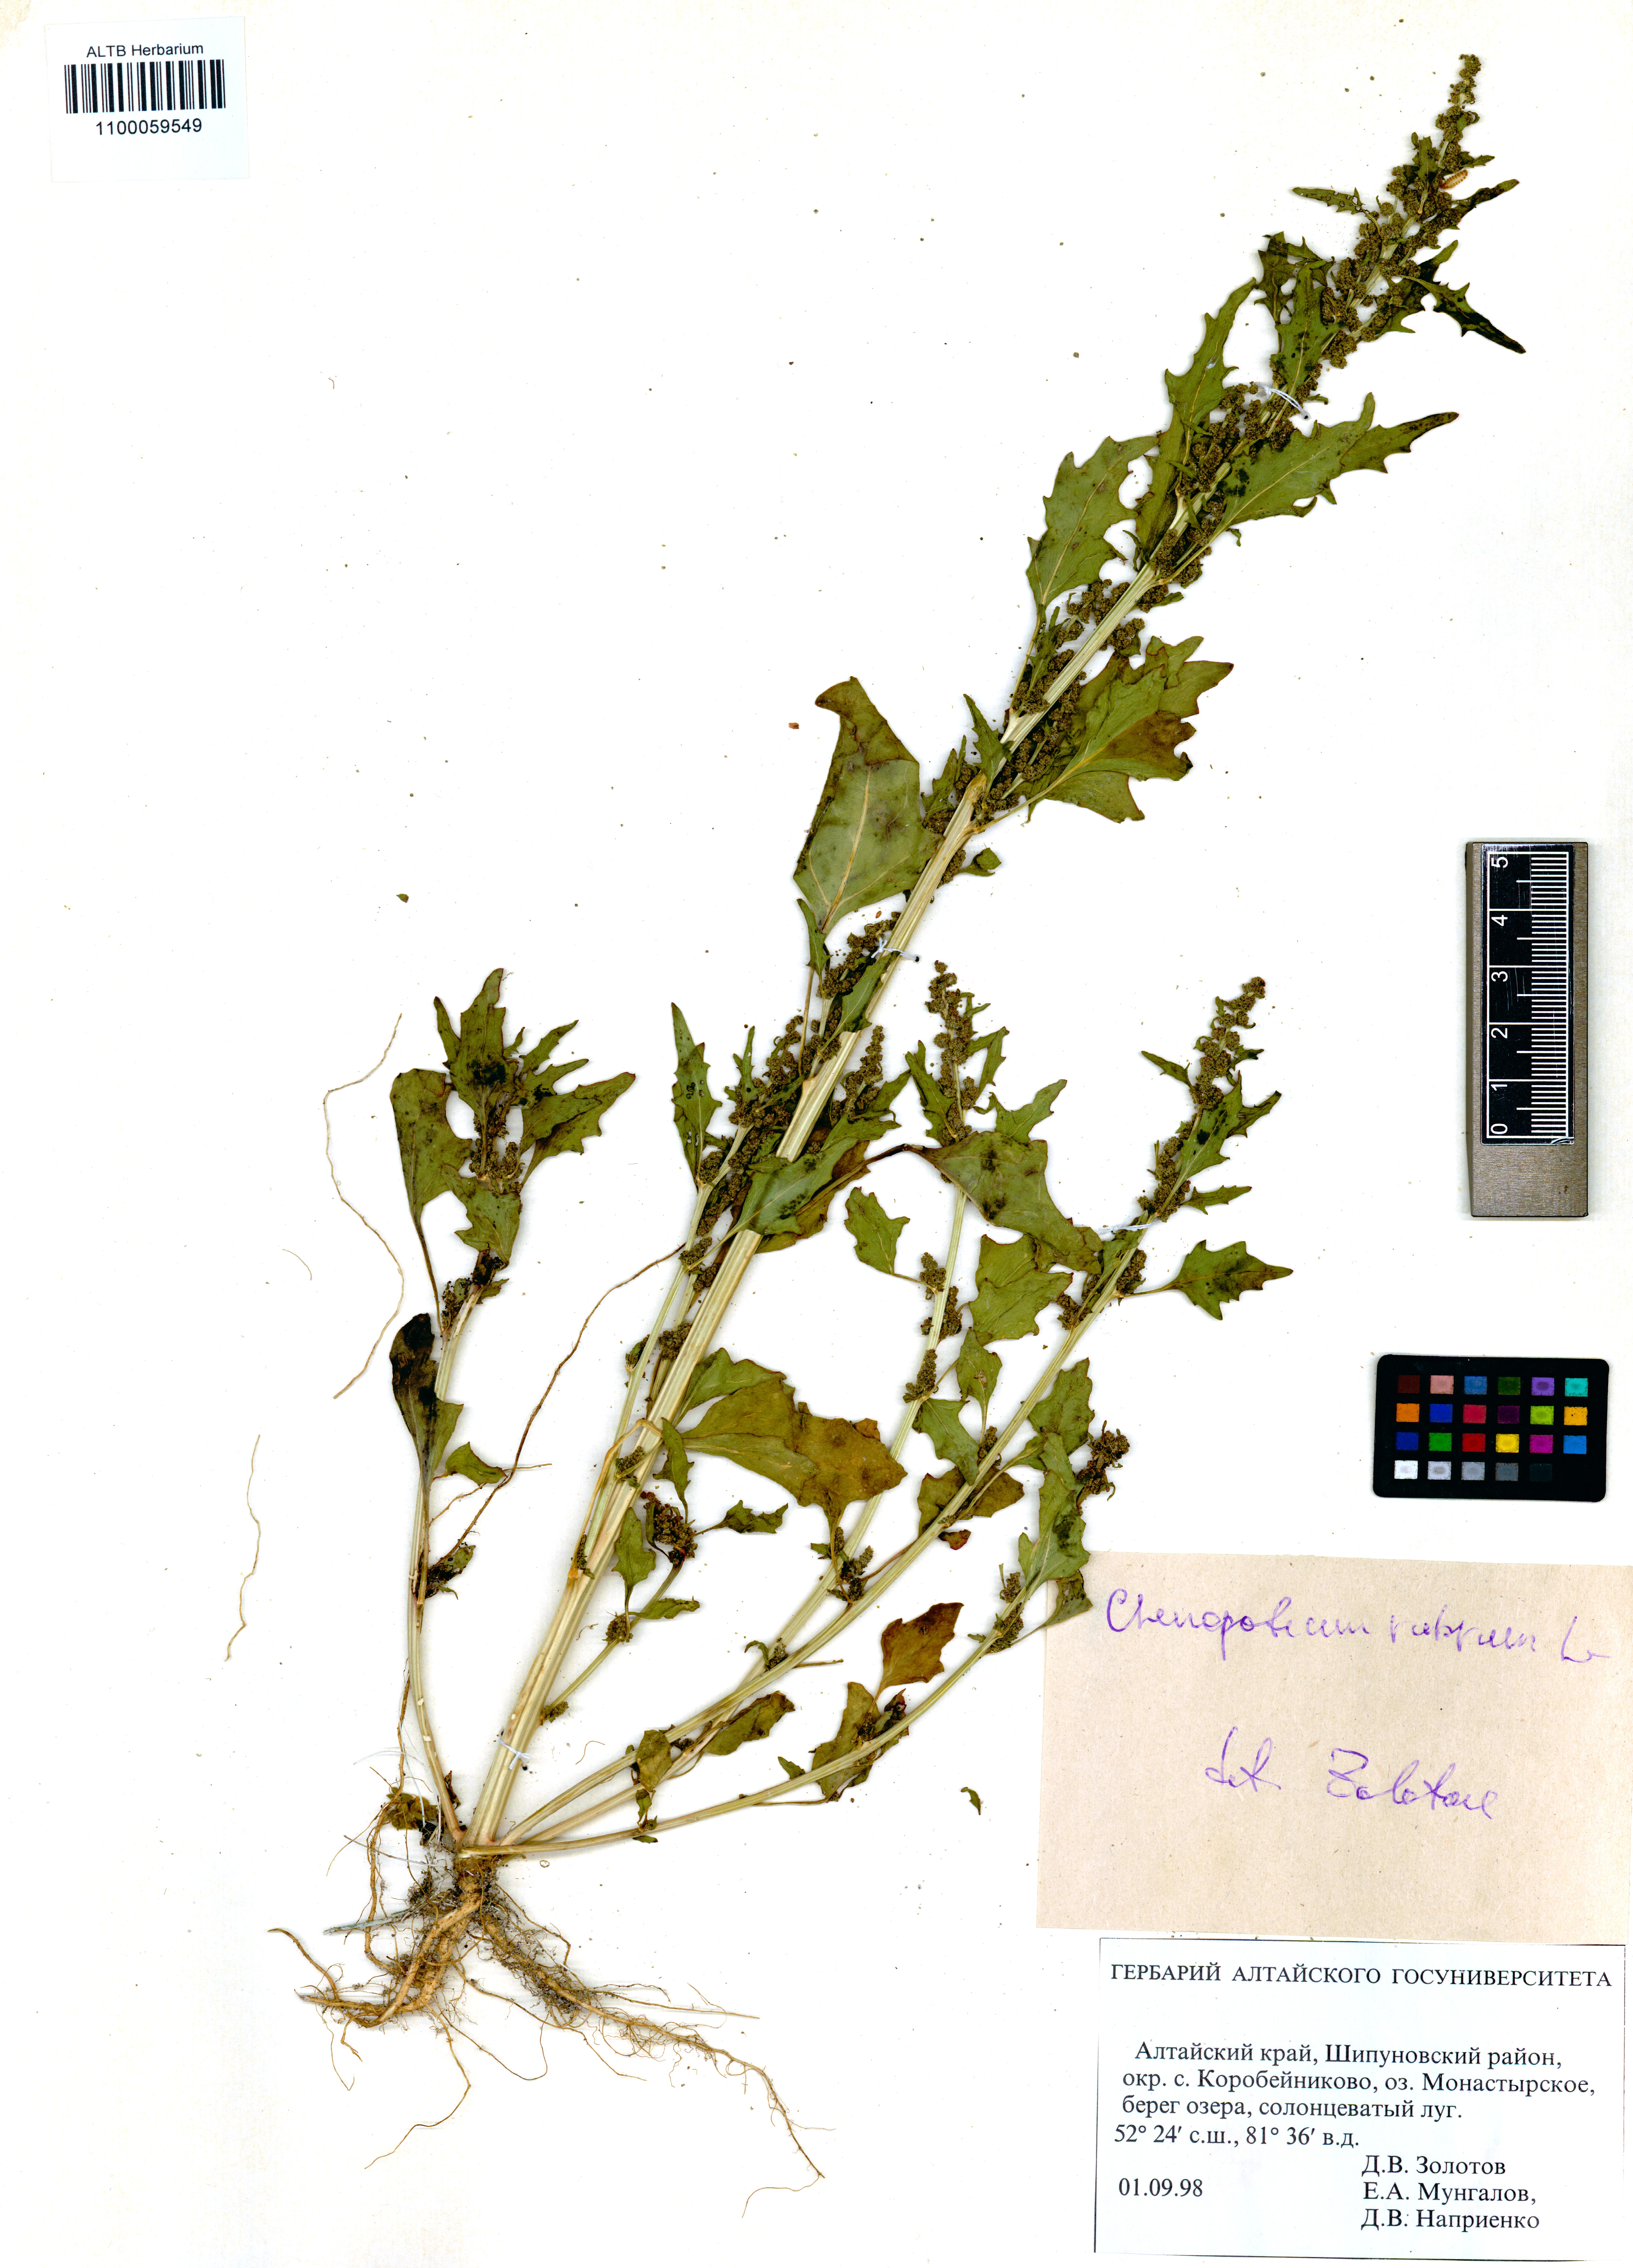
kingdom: Plantae
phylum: Tracheophyta
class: Magnoliopsida
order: Caryophyllales
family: Amaranthaceae
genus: Oxybasis
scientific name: Oxybasis rubra
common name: Red goosefoot
